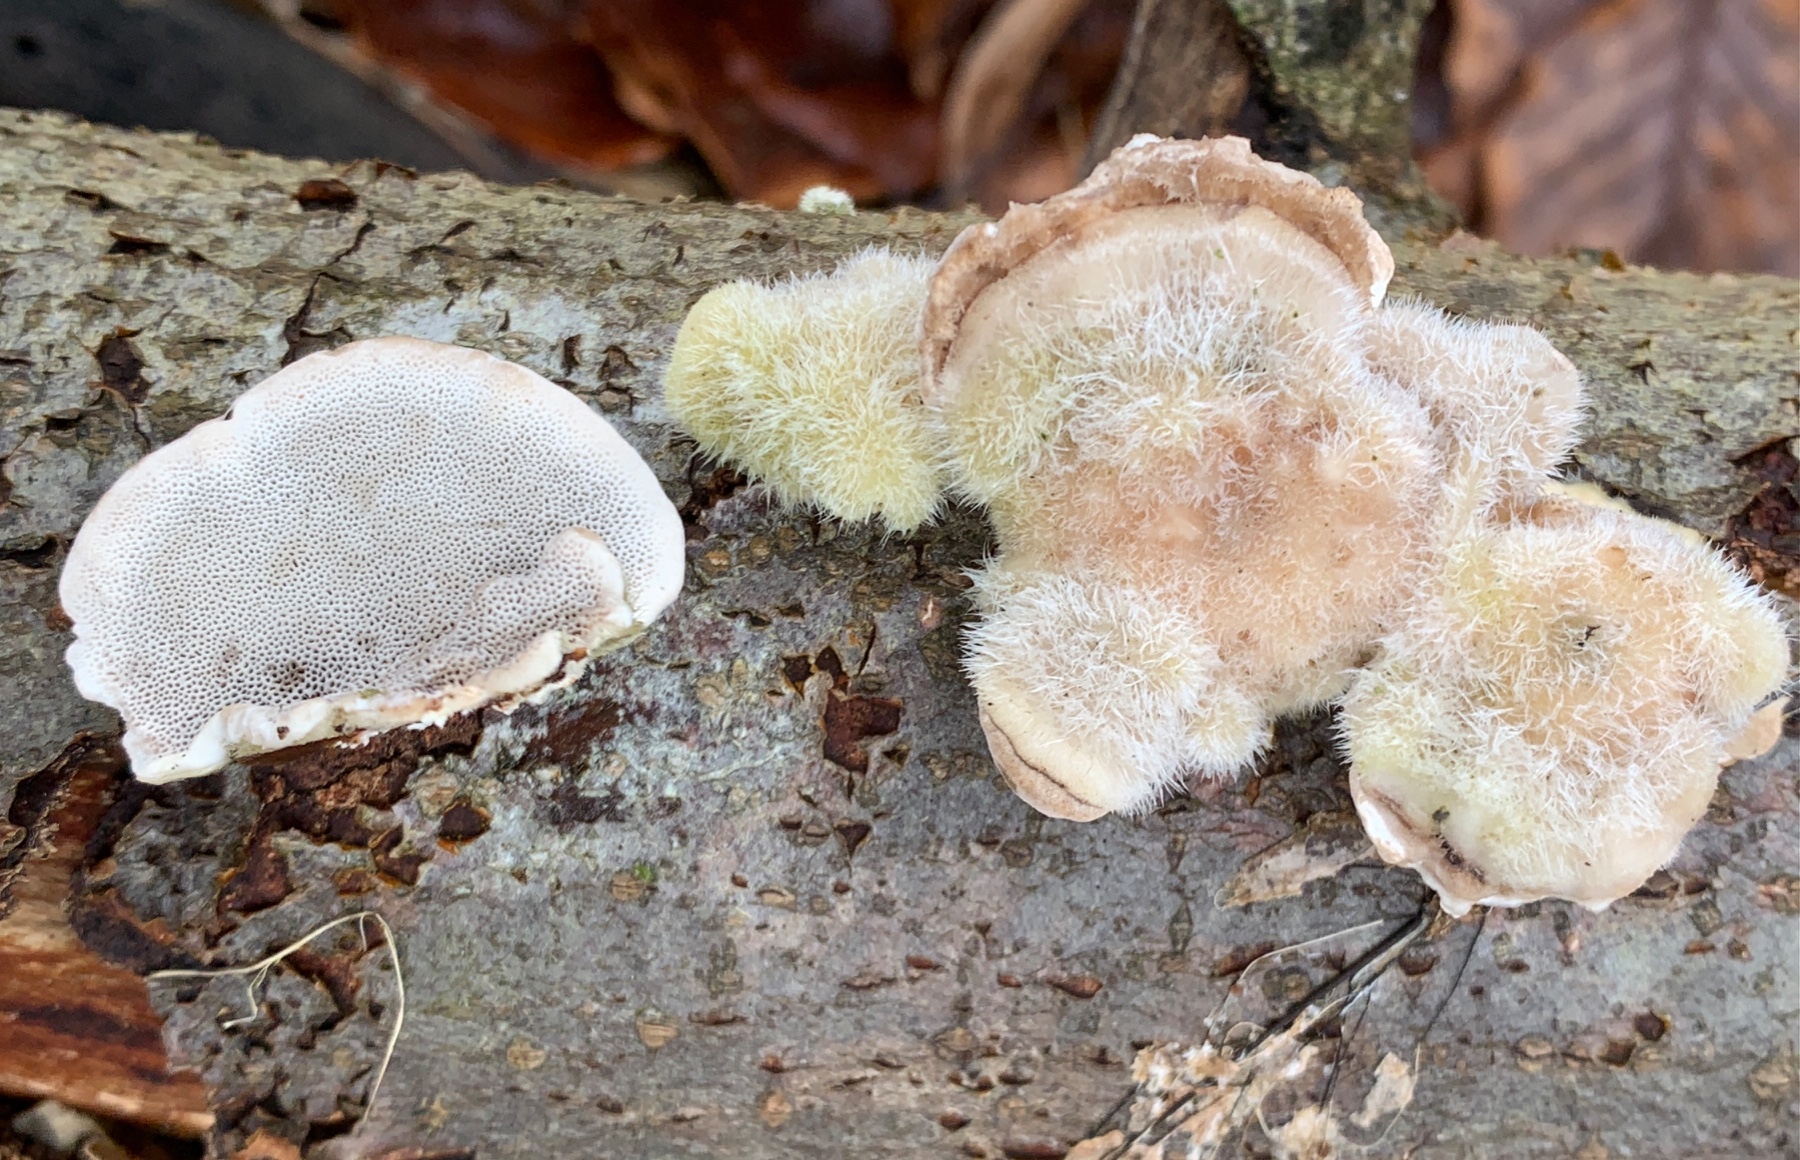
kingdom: Fungi
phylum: Basidiomycota
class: Agaricomycetes
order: Polyporales
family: Polyporaceae
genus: Trametes
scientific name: Trametes hirsuta
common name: håret læderporesvamp
